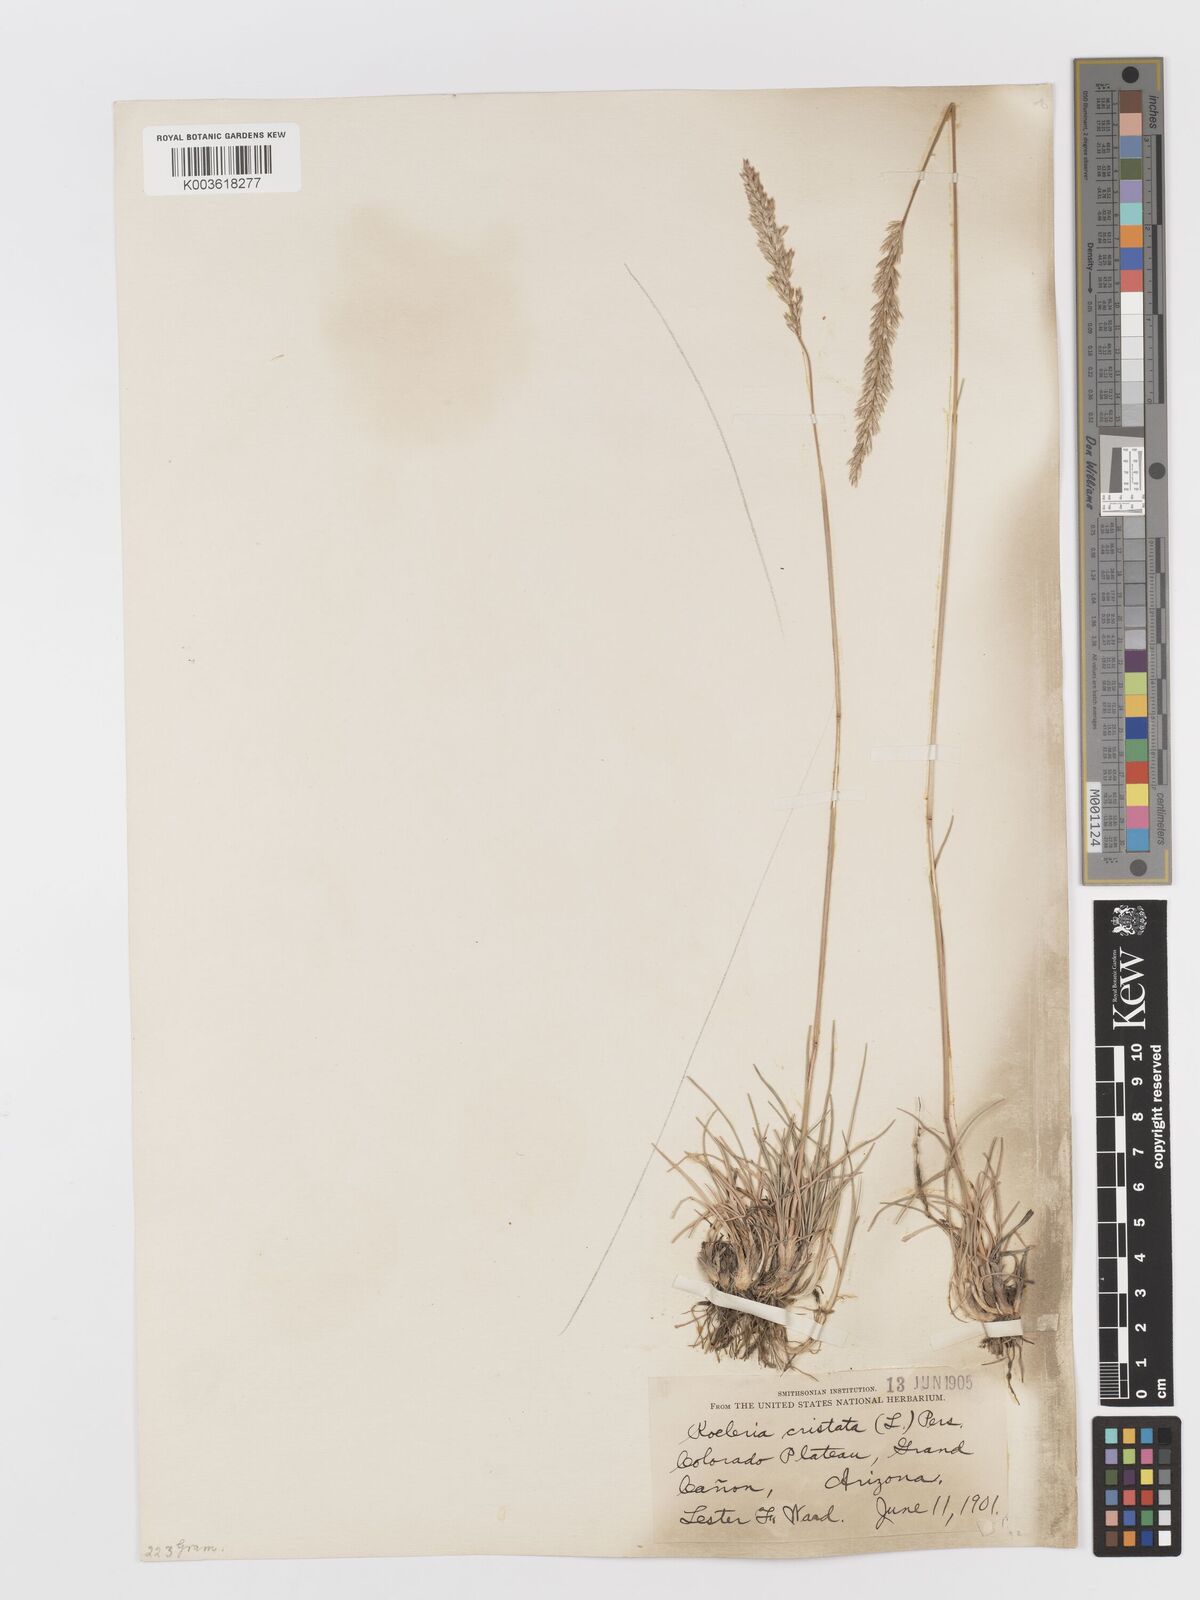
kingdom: Plantae
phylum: Tracheophyta
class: Liliopsida
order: Poales
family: Poaceae
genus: Koeleria
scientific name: Koeleria macrantha
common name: Crested hair-grass
